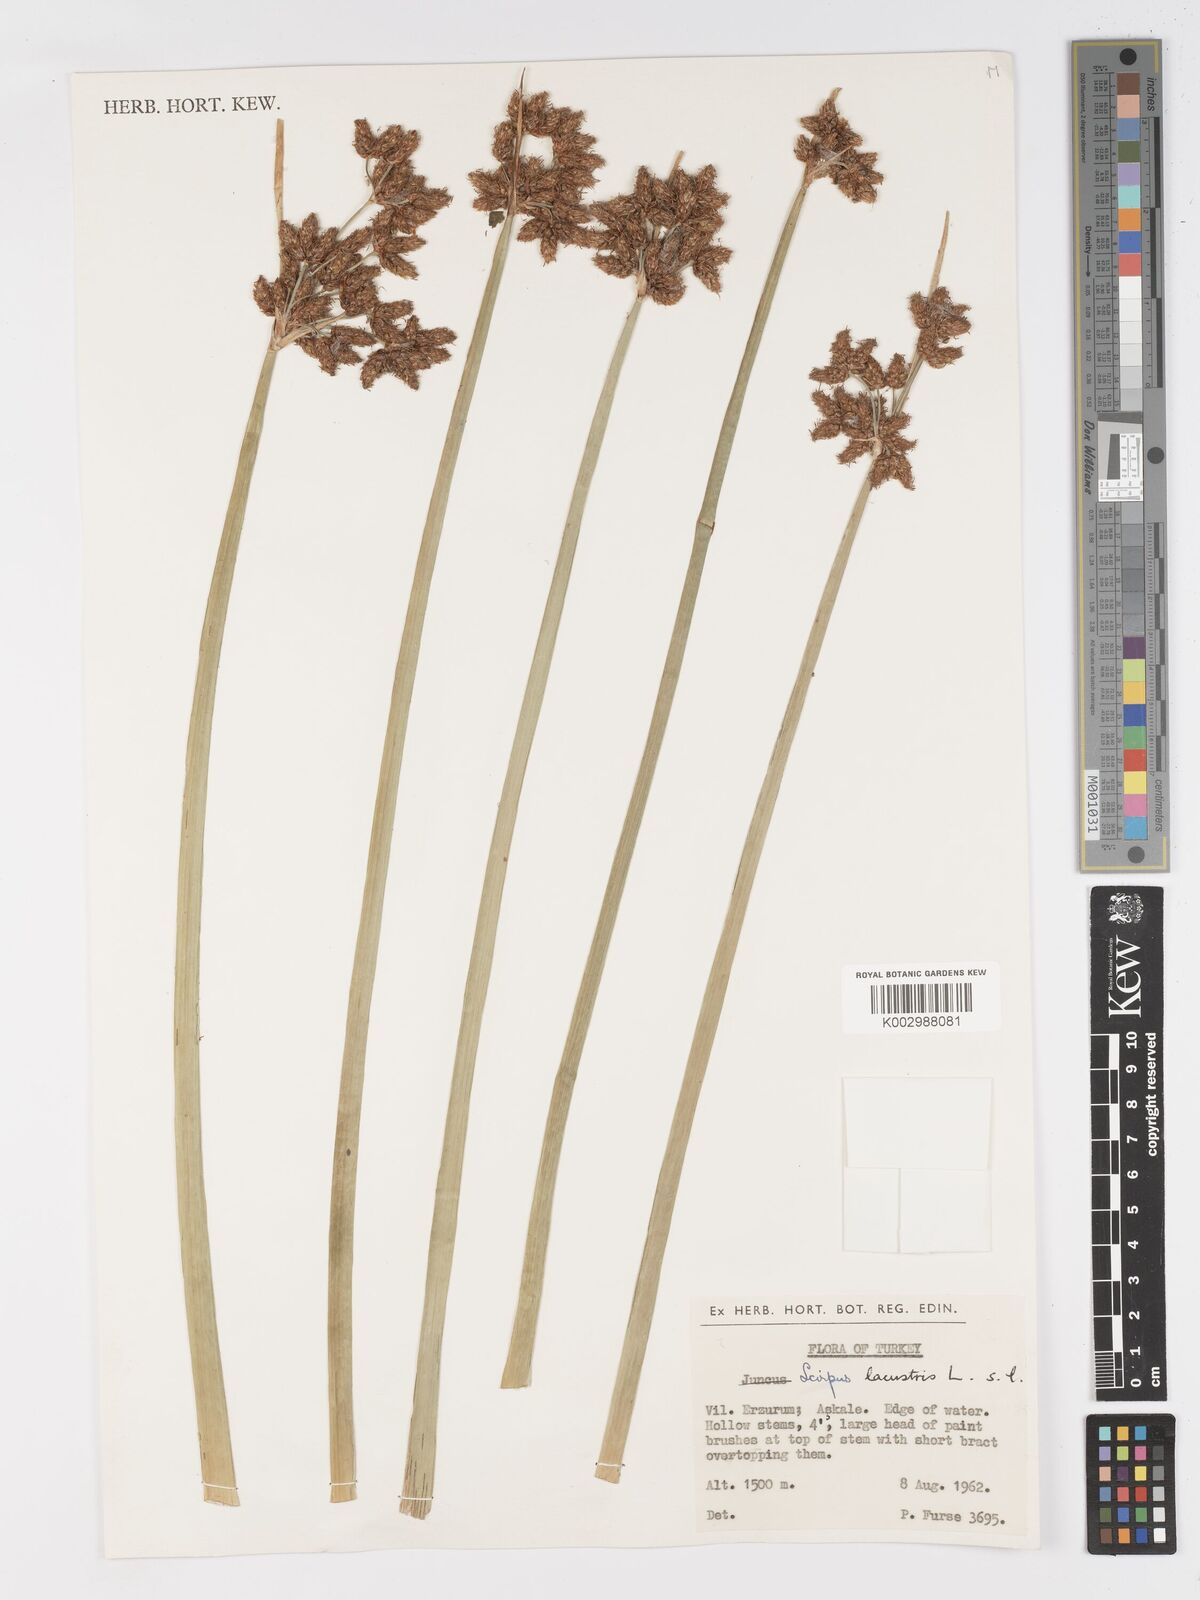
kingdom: Plantae
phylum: Tracheophyta
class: Liliopsida
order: Poales
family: Cyperaceae
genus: Schoenoplectus
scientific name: Schoenoplectus lacustris
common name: Common club-rush
